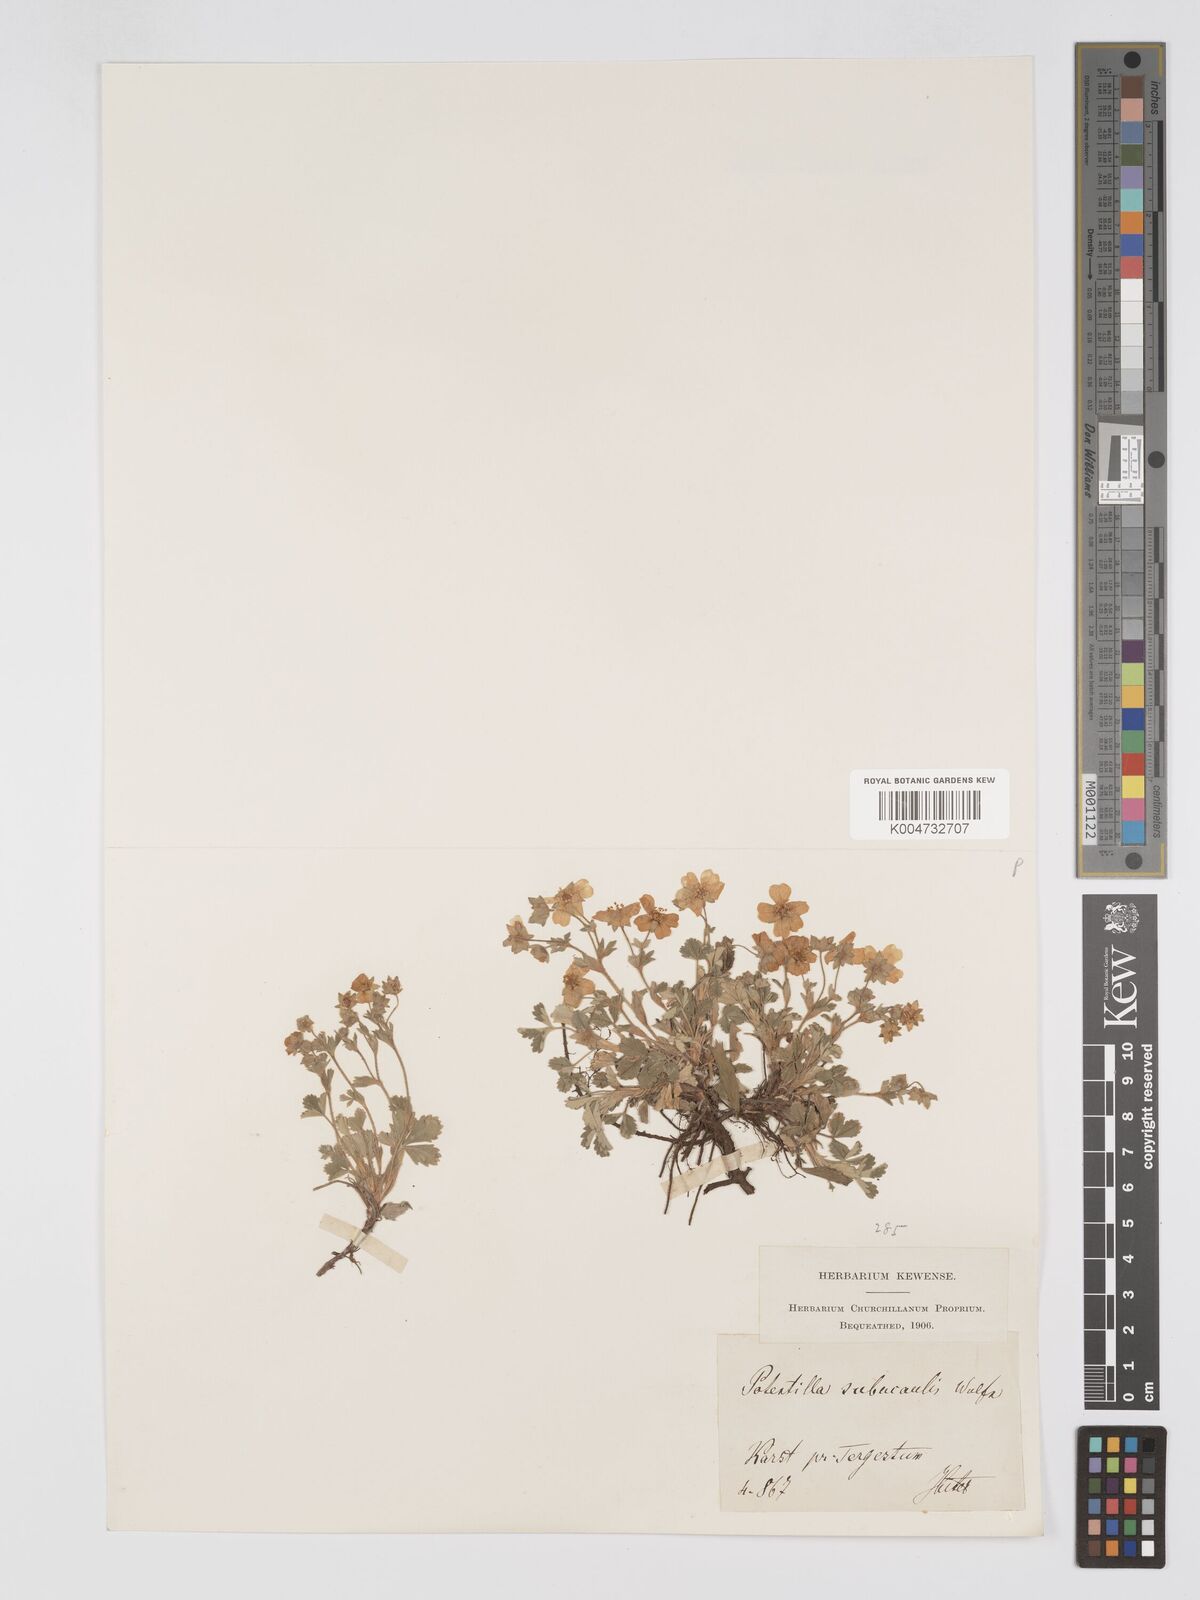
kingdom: Plantae
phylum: Tracheophyta
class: Magnoliopsida
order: Rosales
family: Rosaceae
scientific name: Rosaceae
